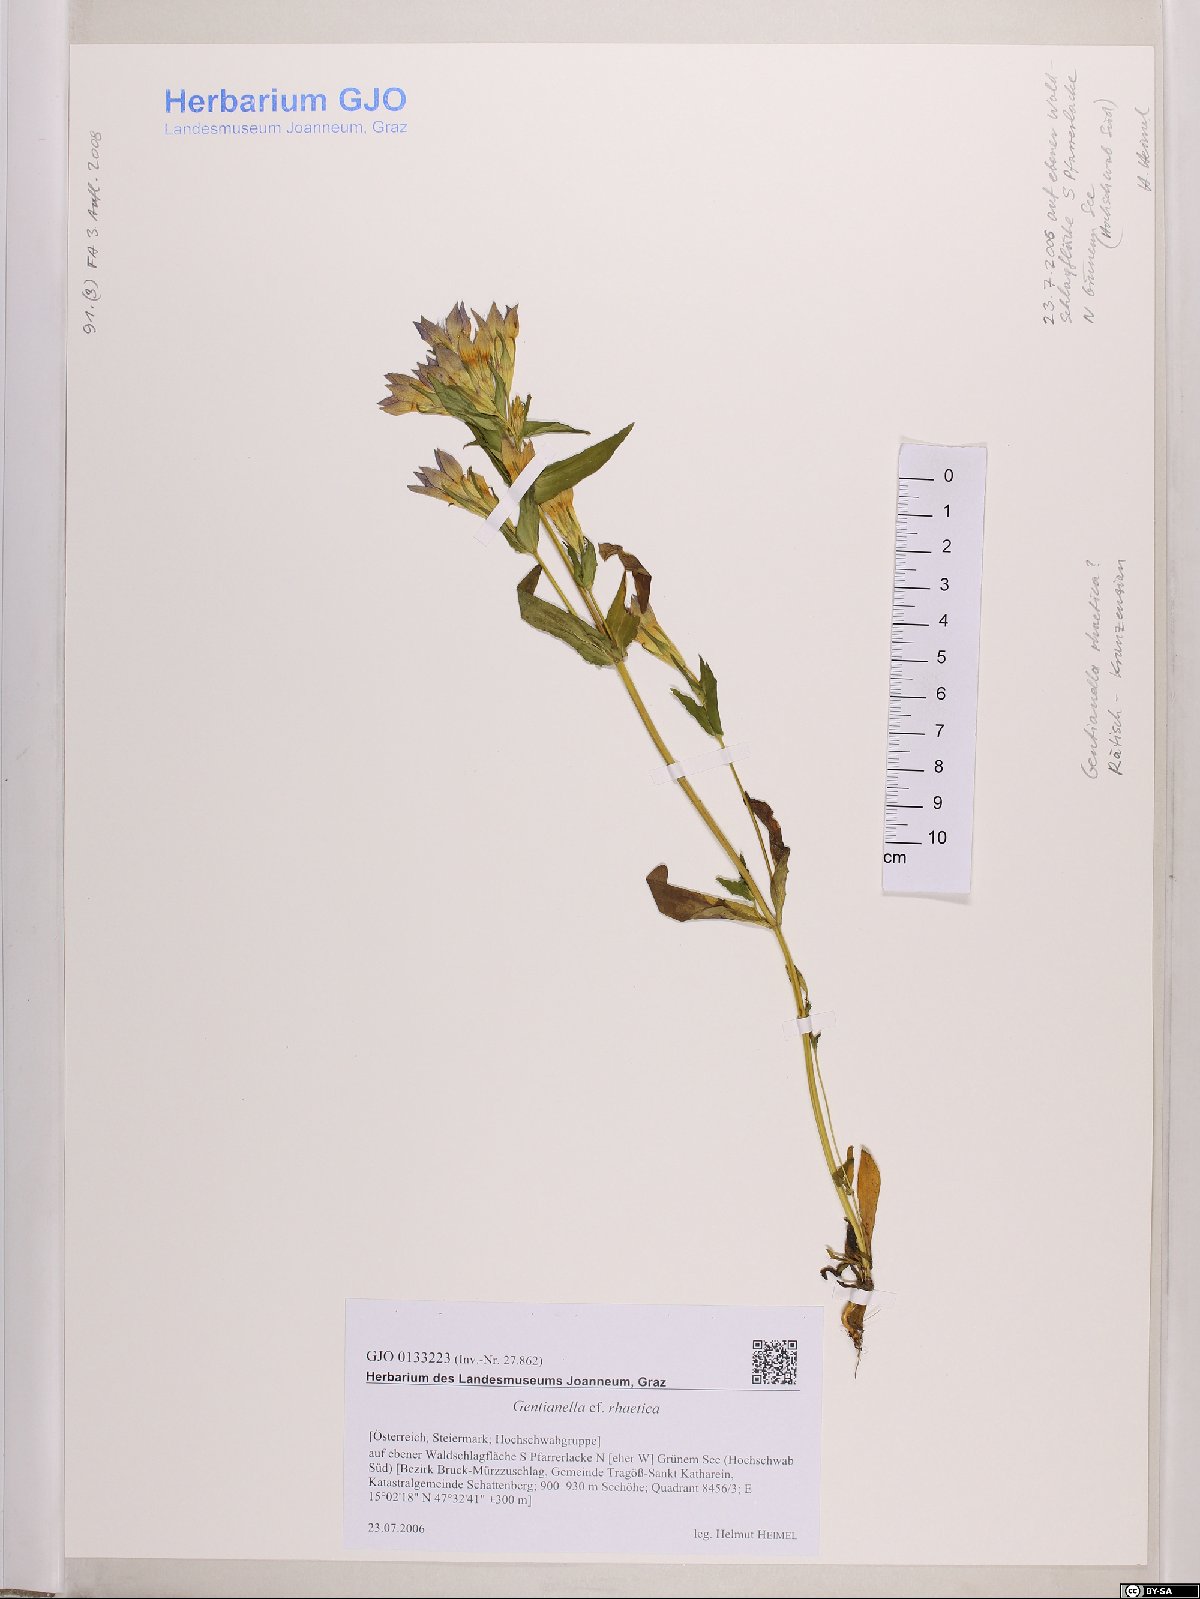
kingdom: Plantae
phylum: Tracheophyta
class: Magnoliopsida
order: Gentianales
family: Gentianaceae
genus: Gentianella
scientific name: Gentianella rhaetica
